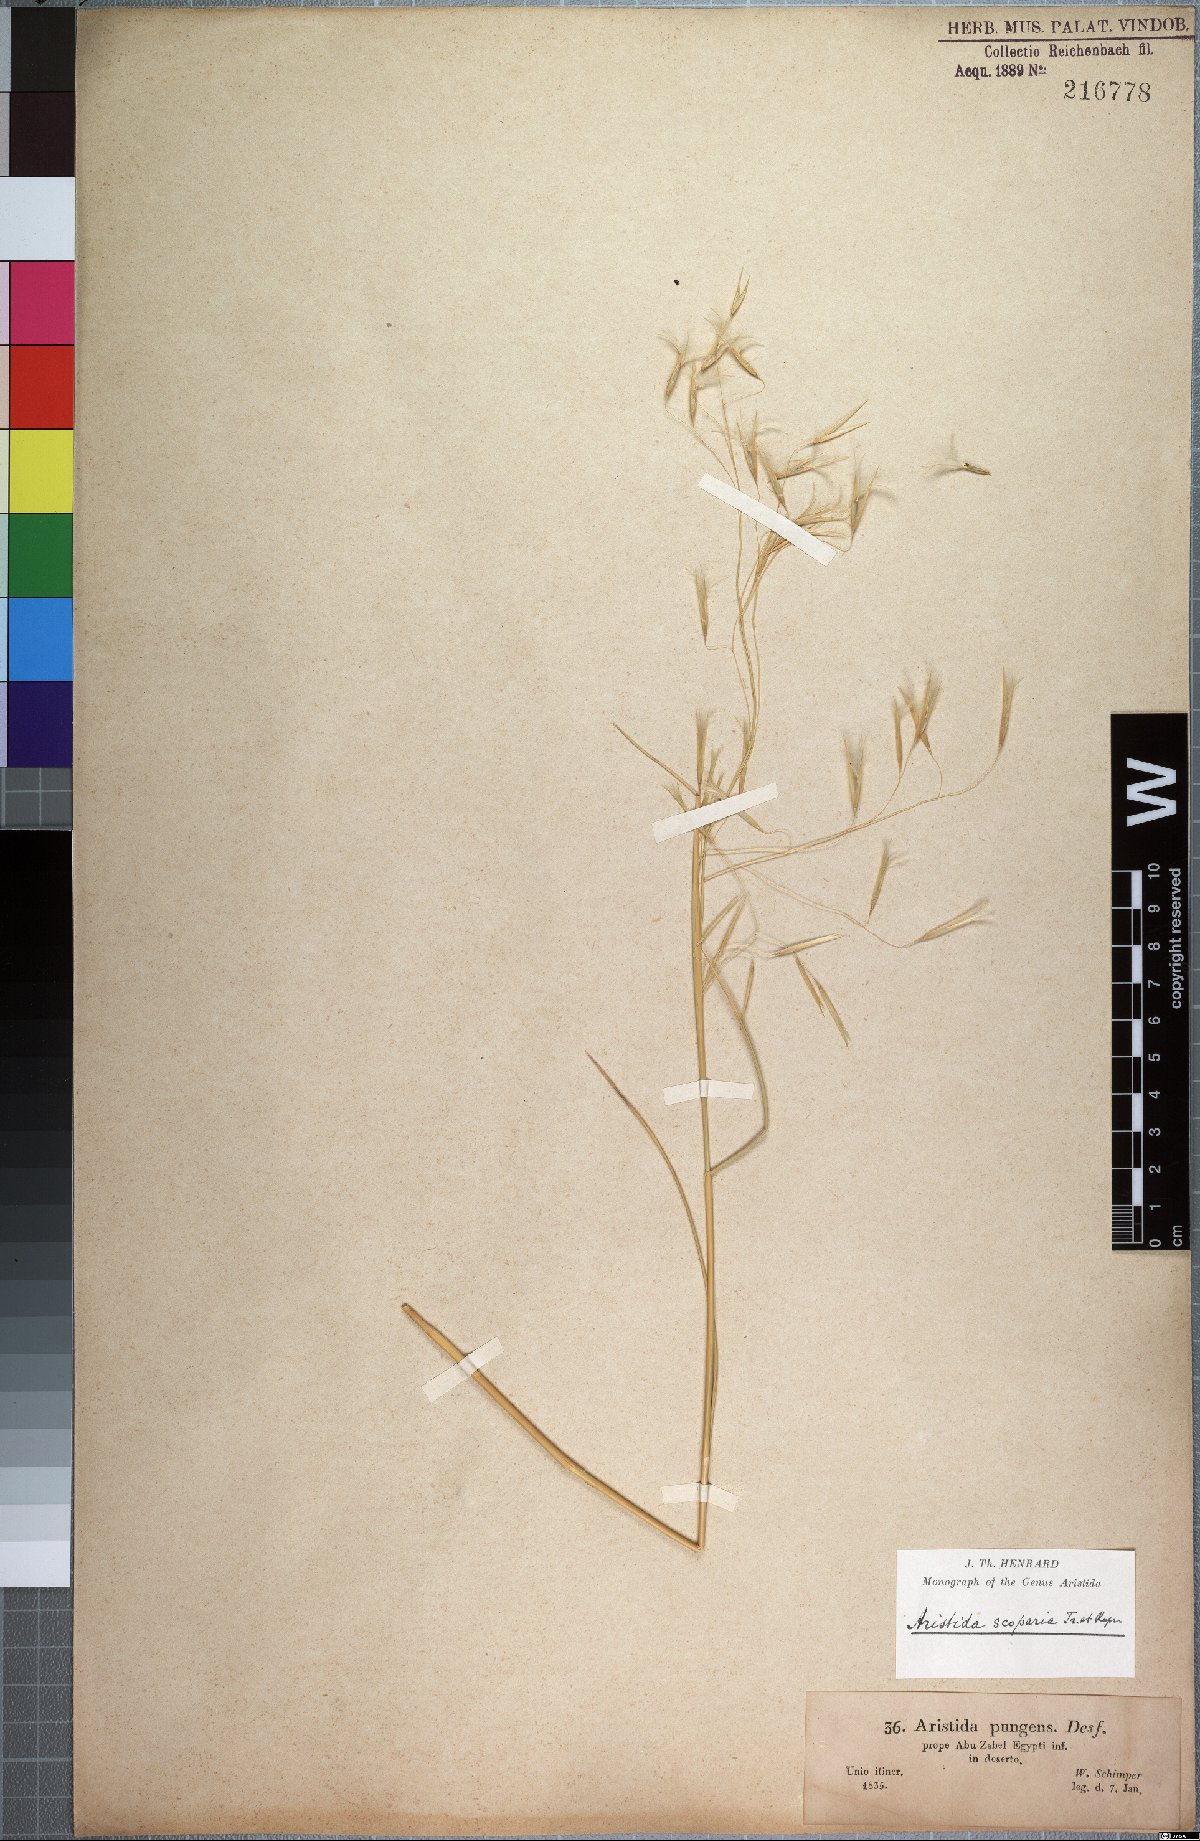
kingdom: Plantae
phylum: Tracheophyta
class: Liliopsida
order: Poales
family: Poaceae
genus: Stipagrostis
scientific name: Stipagrostis scoparia
